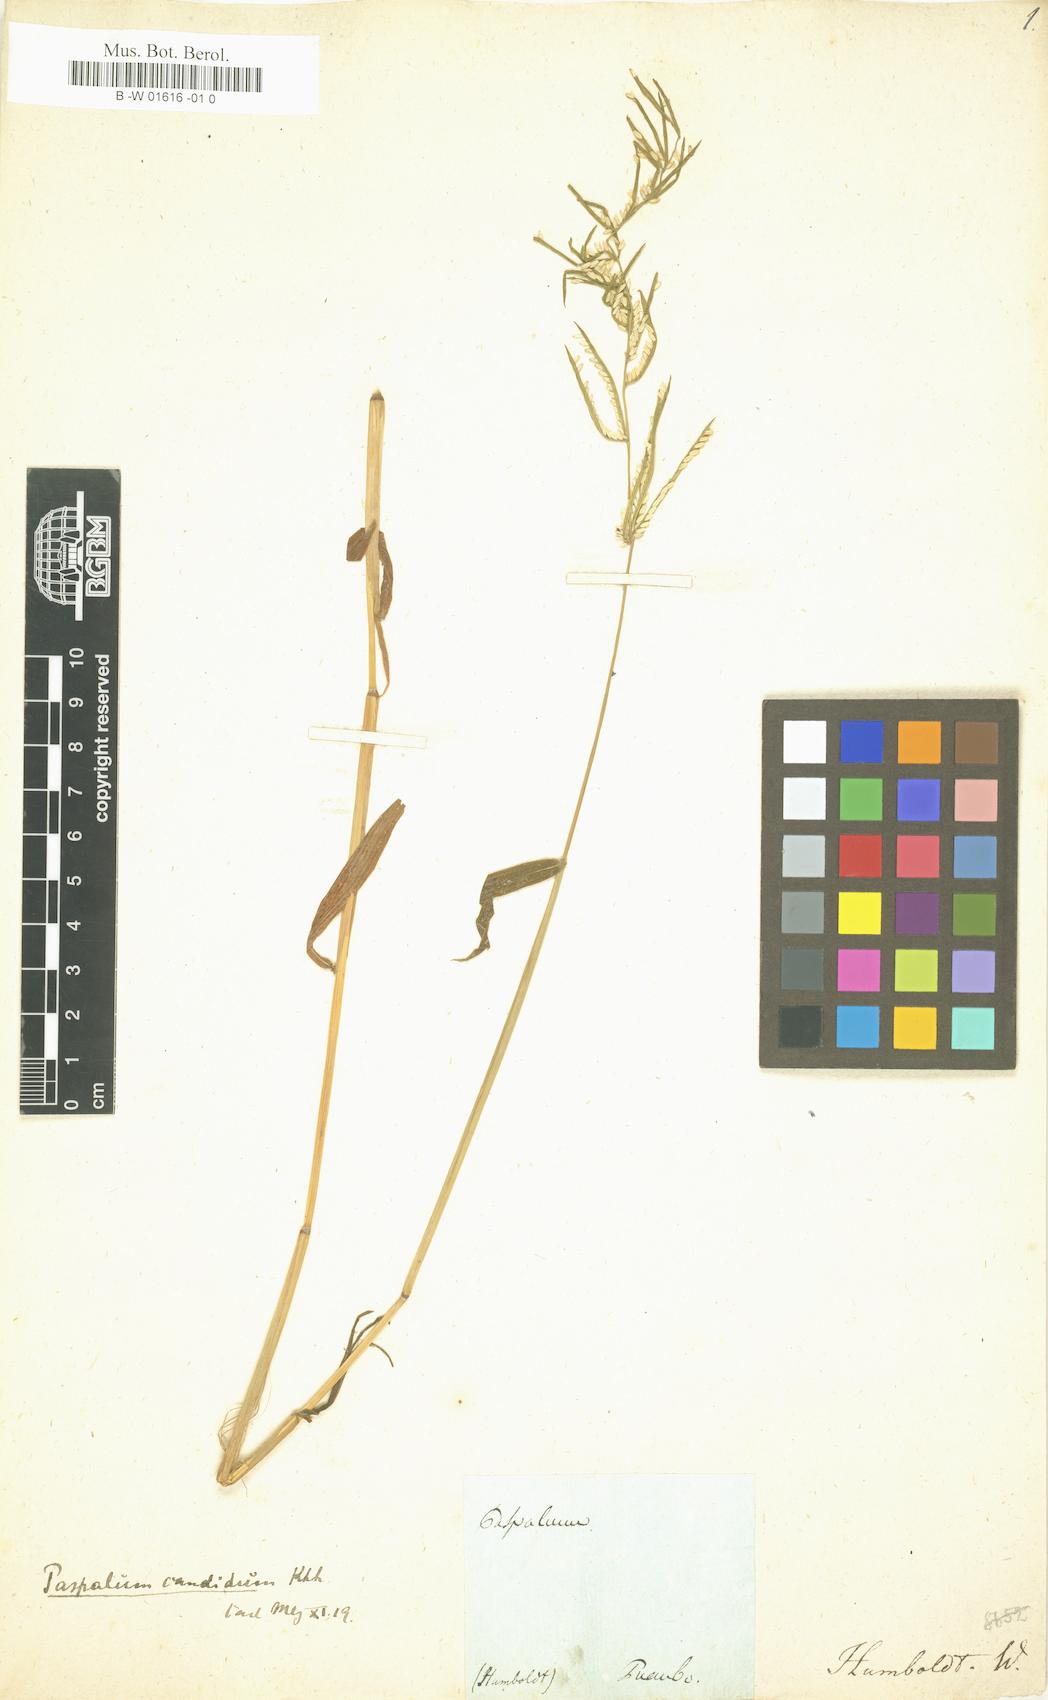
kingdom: Plantae
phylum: Tracheophyta
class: Liliopsida
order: Poales
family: Poaceae
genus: Paspalum
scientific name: Paspalum candidum
